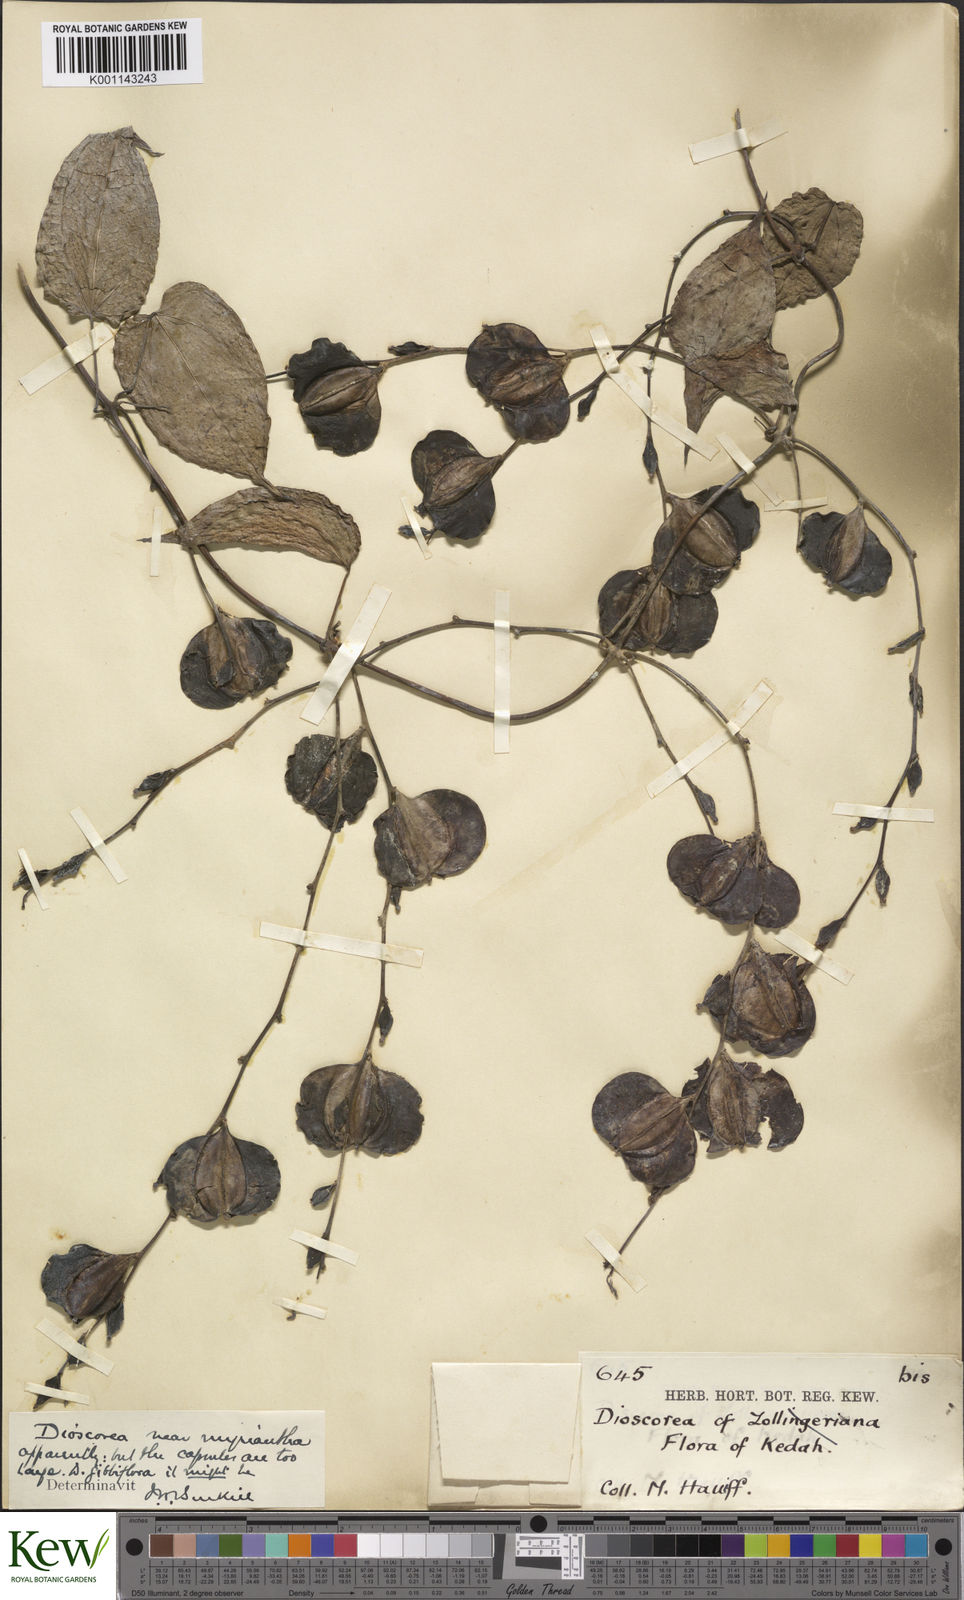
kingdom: Plantae
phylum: Tracheophyta
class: Liliopsida
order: Dioscoreales
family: Dioscoreaceae
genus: Dioscorea
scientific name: Dioscorea filiformis
